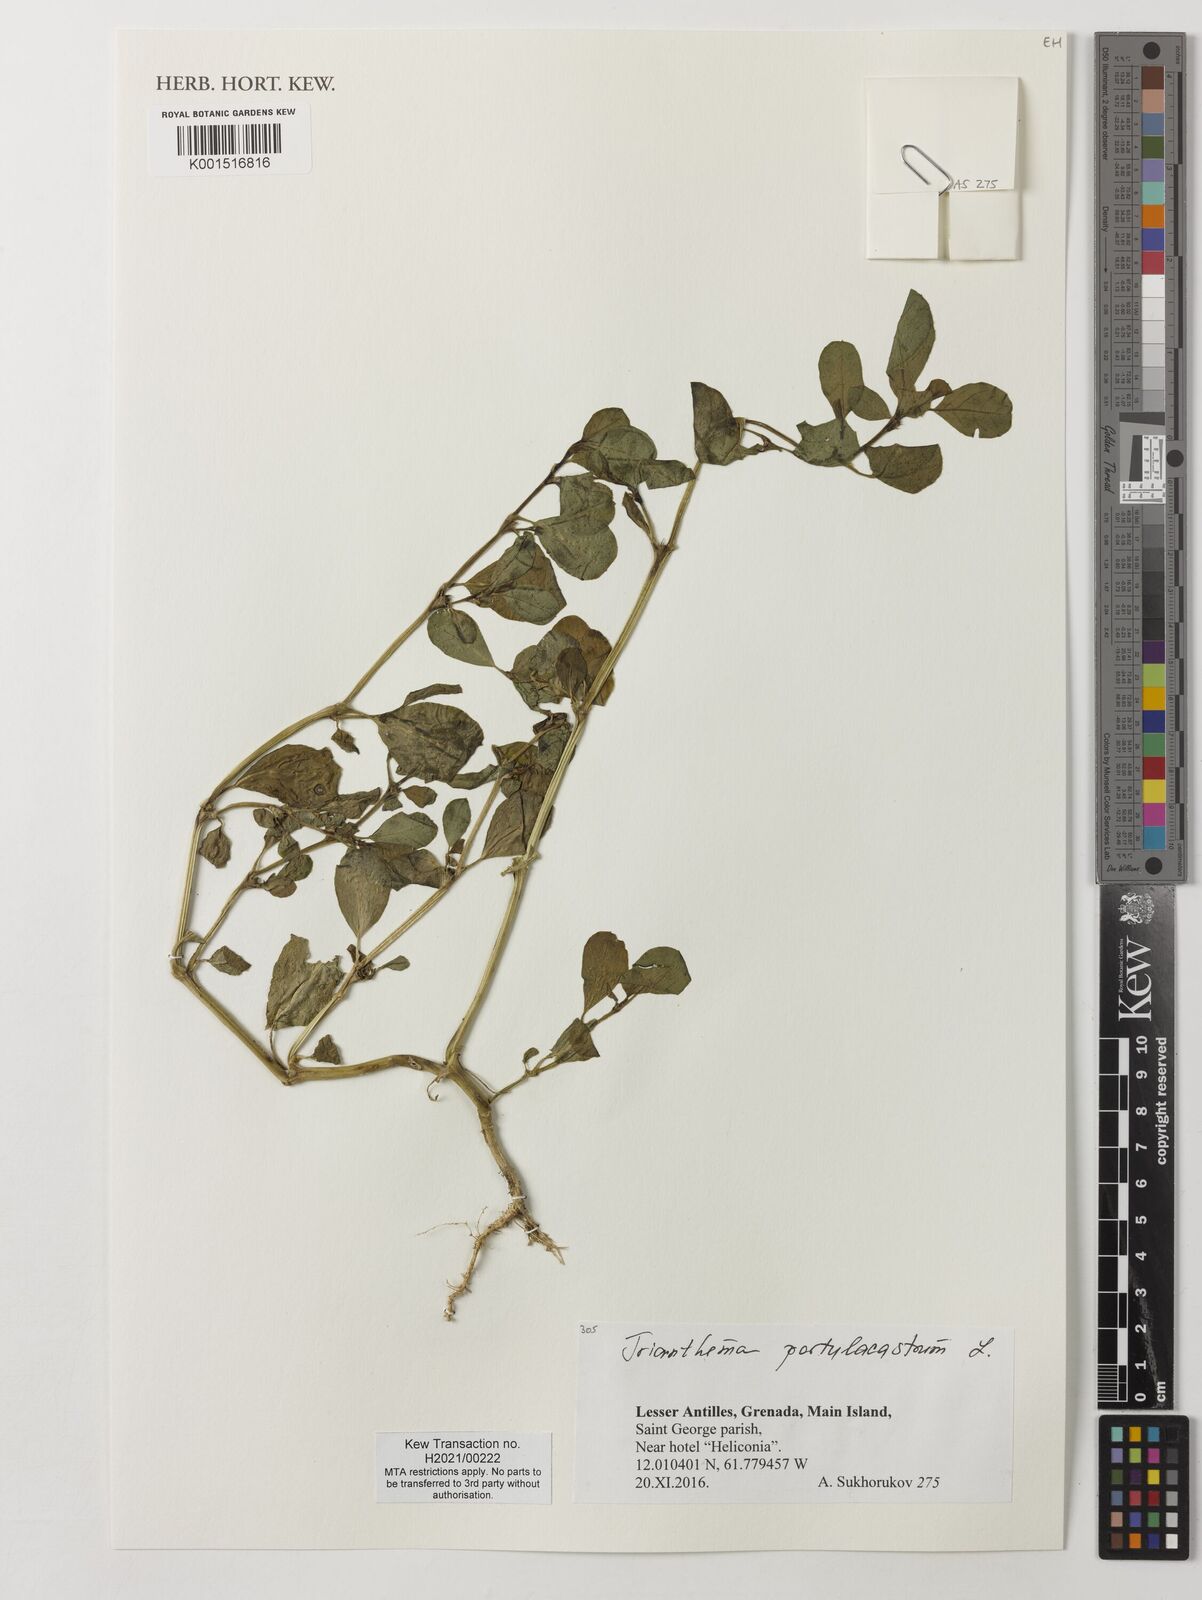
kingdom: Plantae
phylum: Tracheophyta
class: Magnoliopsida
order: Caryophyllales
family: Aizoaceae
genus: Trianthema
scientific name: Trianthema portulacastrum
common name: Desert horsepurslane
